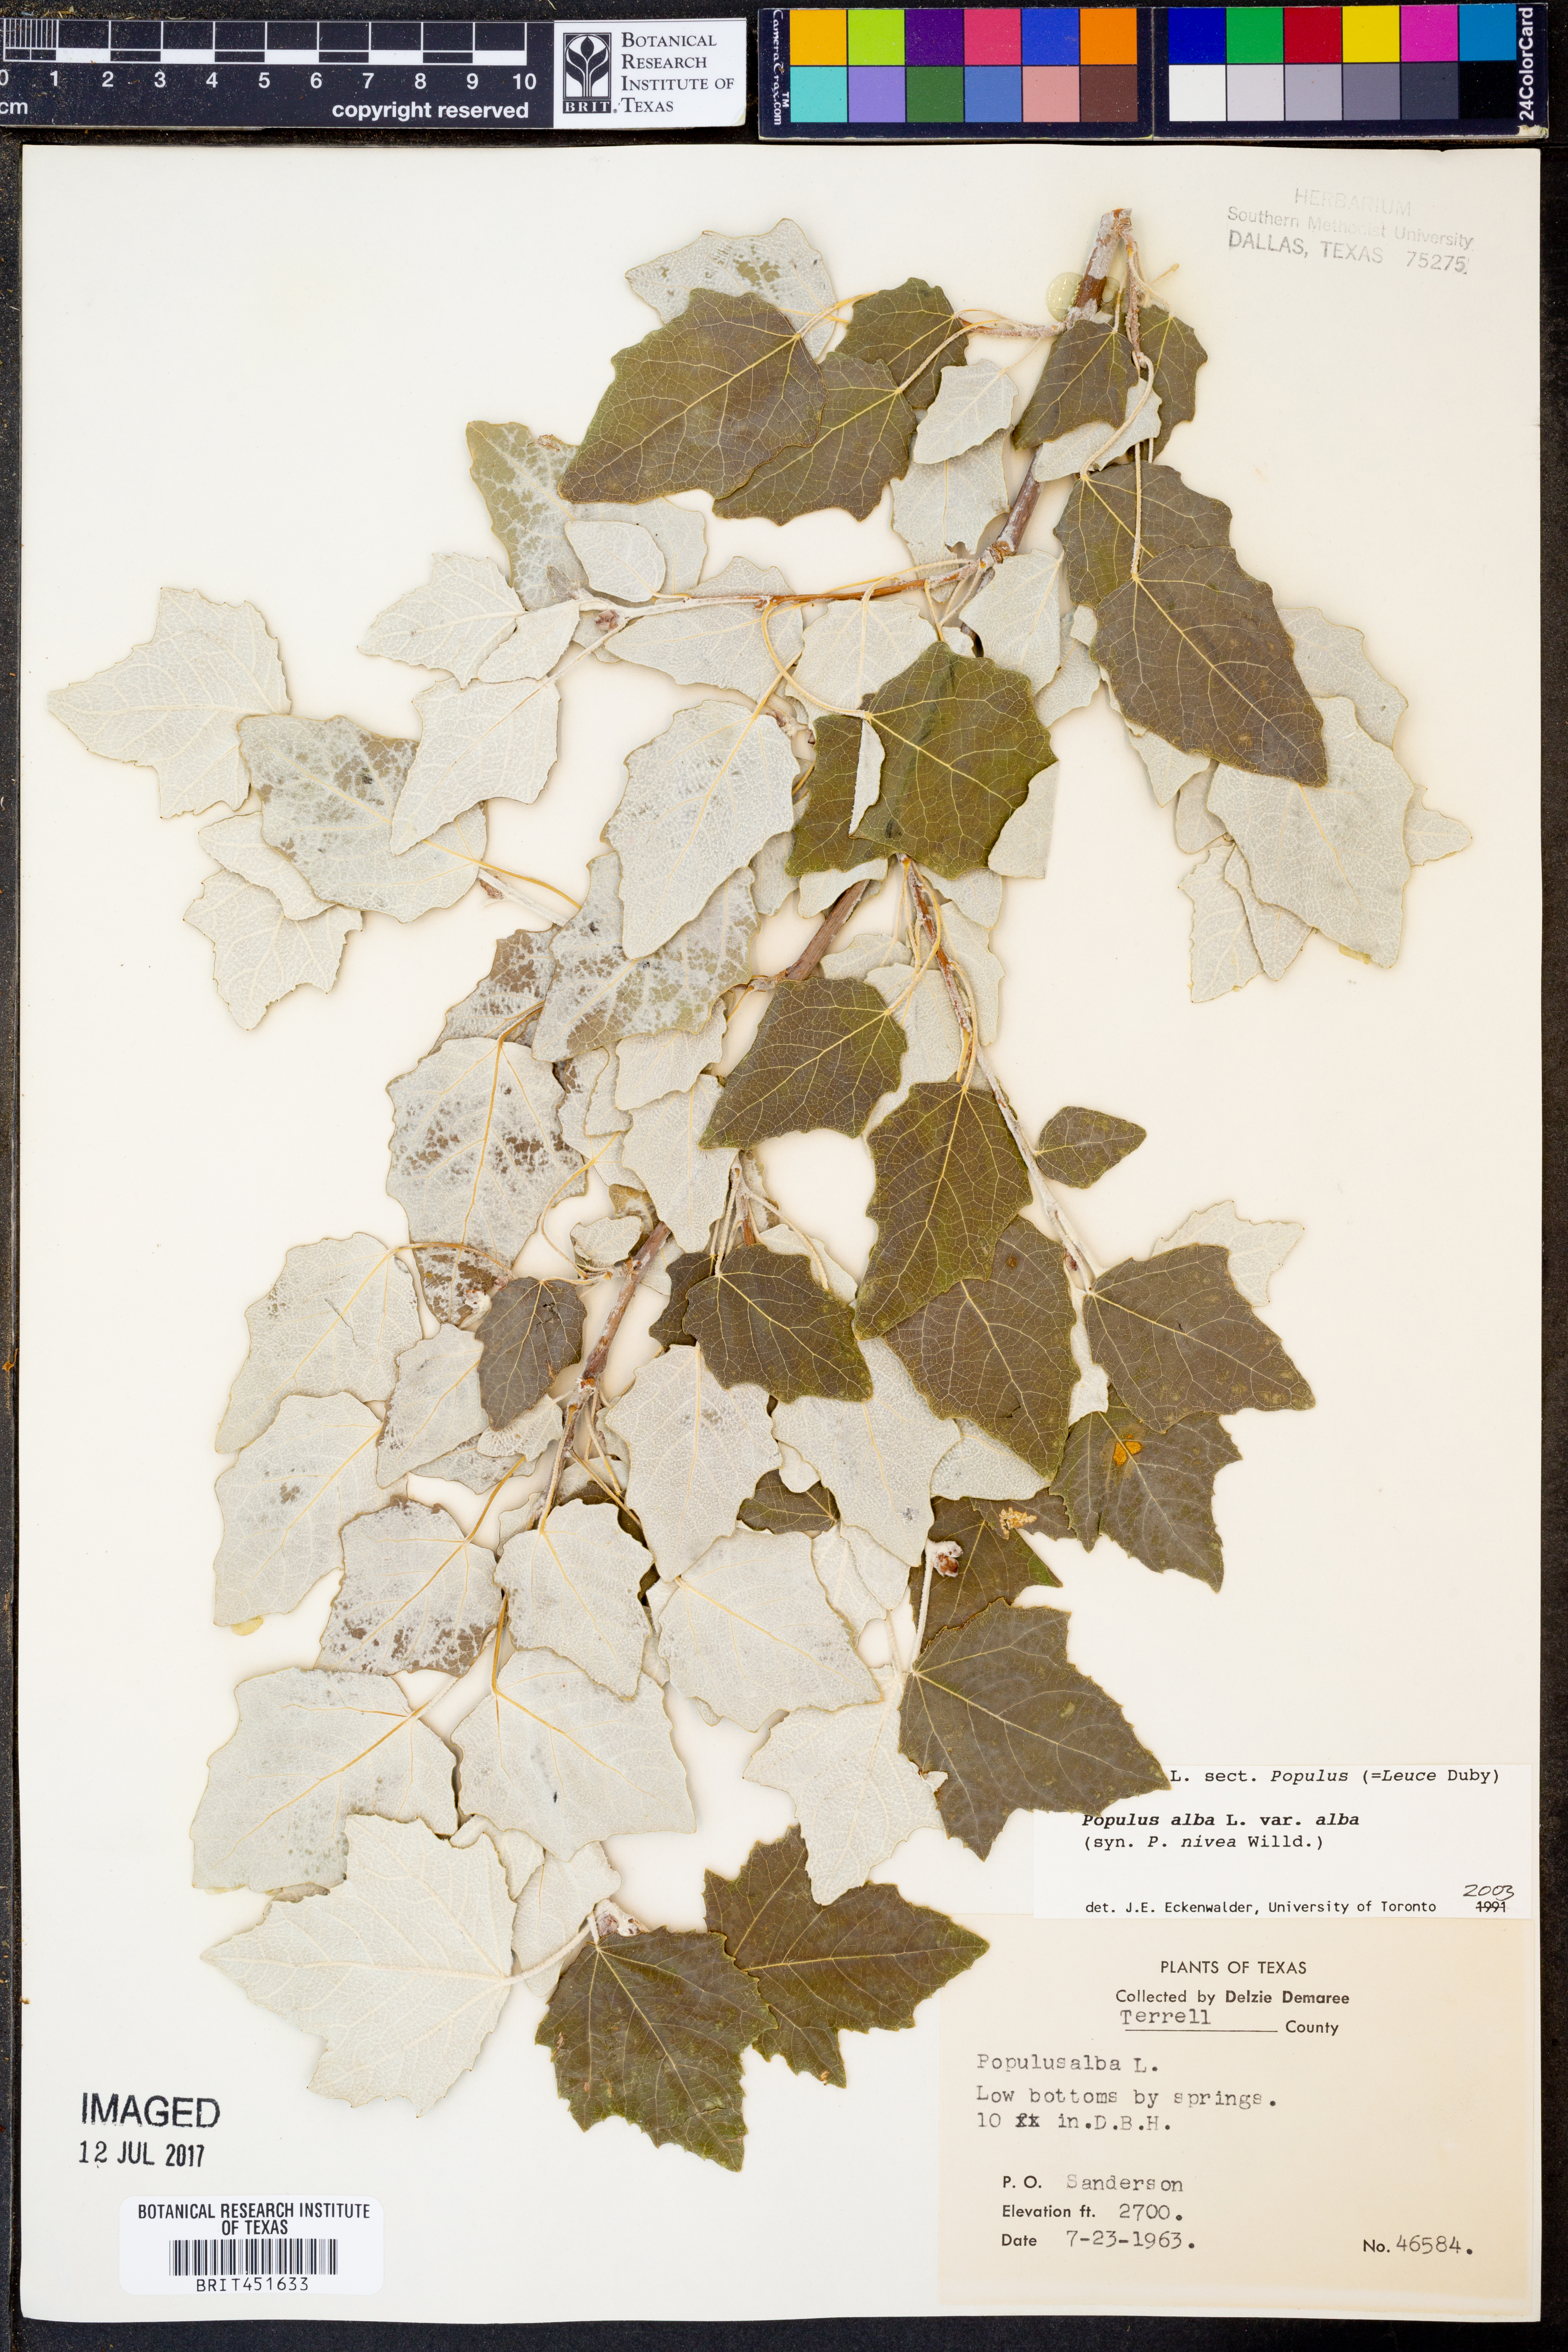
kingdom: Plantae
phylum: Tracheophyta
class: Magnoliopsida
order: Malpighiales
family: Salicaceae
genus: Populus
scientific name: Populus alba
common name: White poplar
